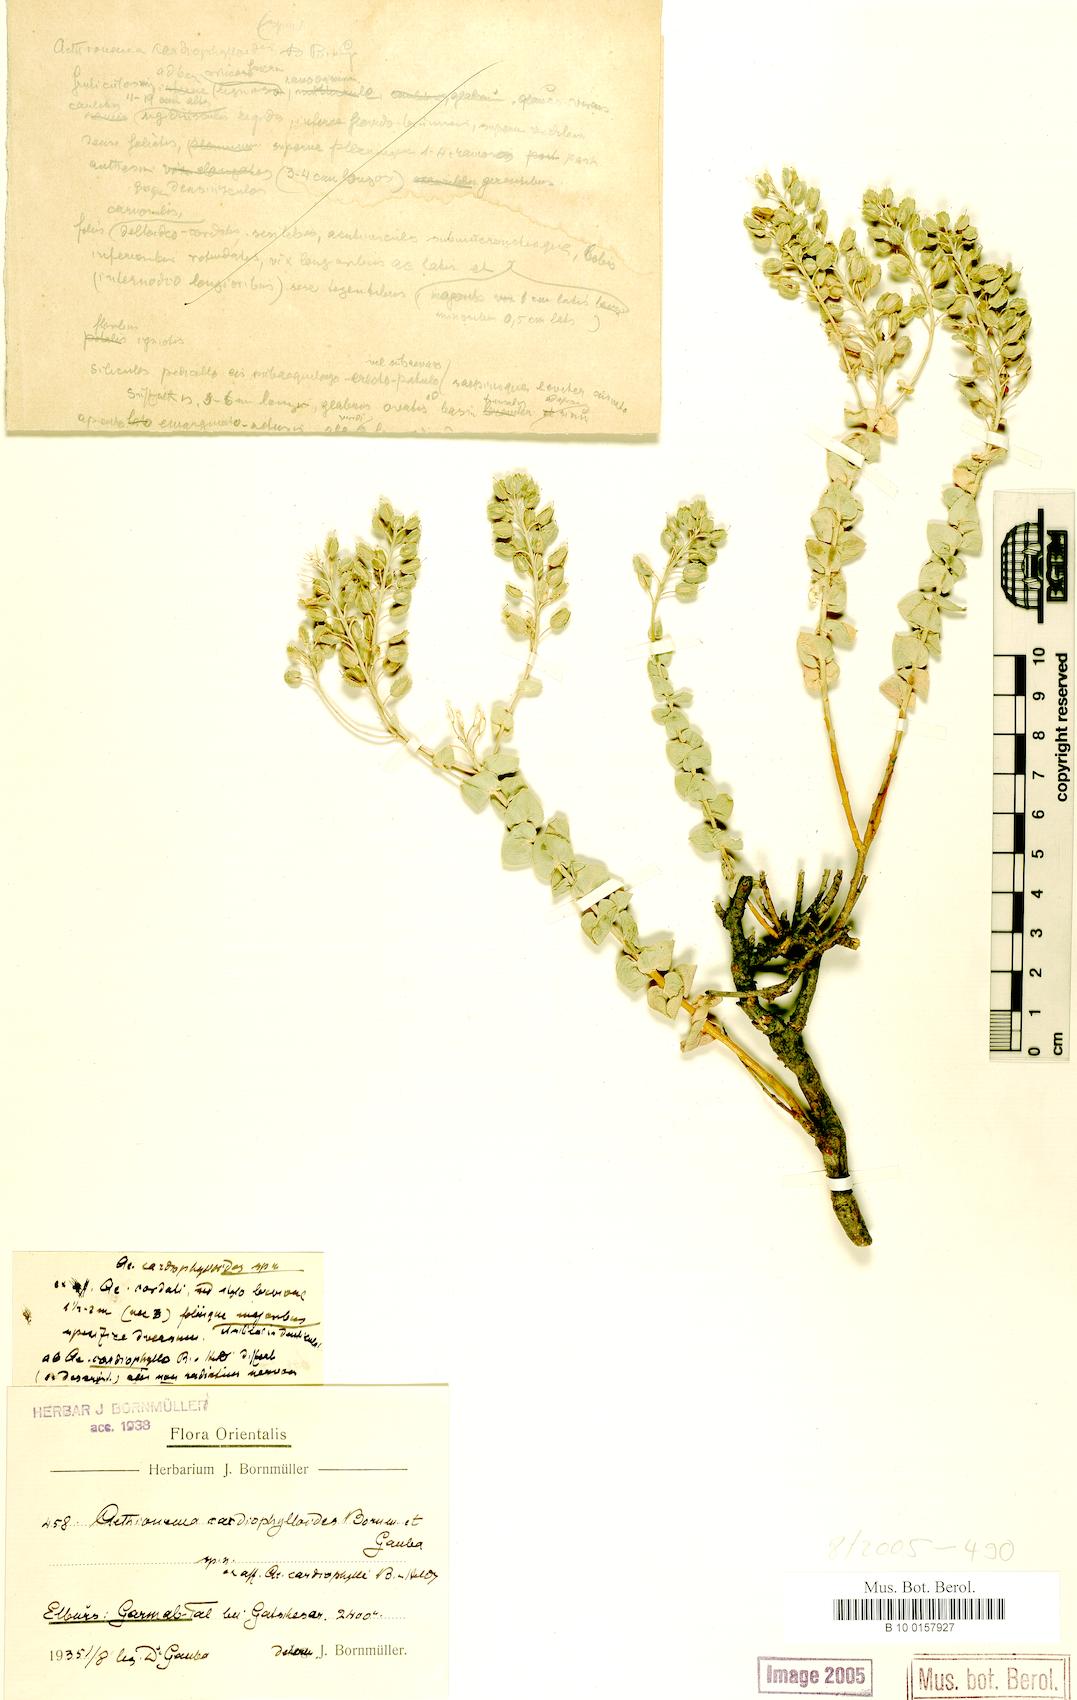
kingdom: Plantae
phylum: Tracheophyta
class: Magnoliopsida
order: Brassicales
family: Brassicaceae
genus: Aethionema
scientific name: Aethionema cordatum
